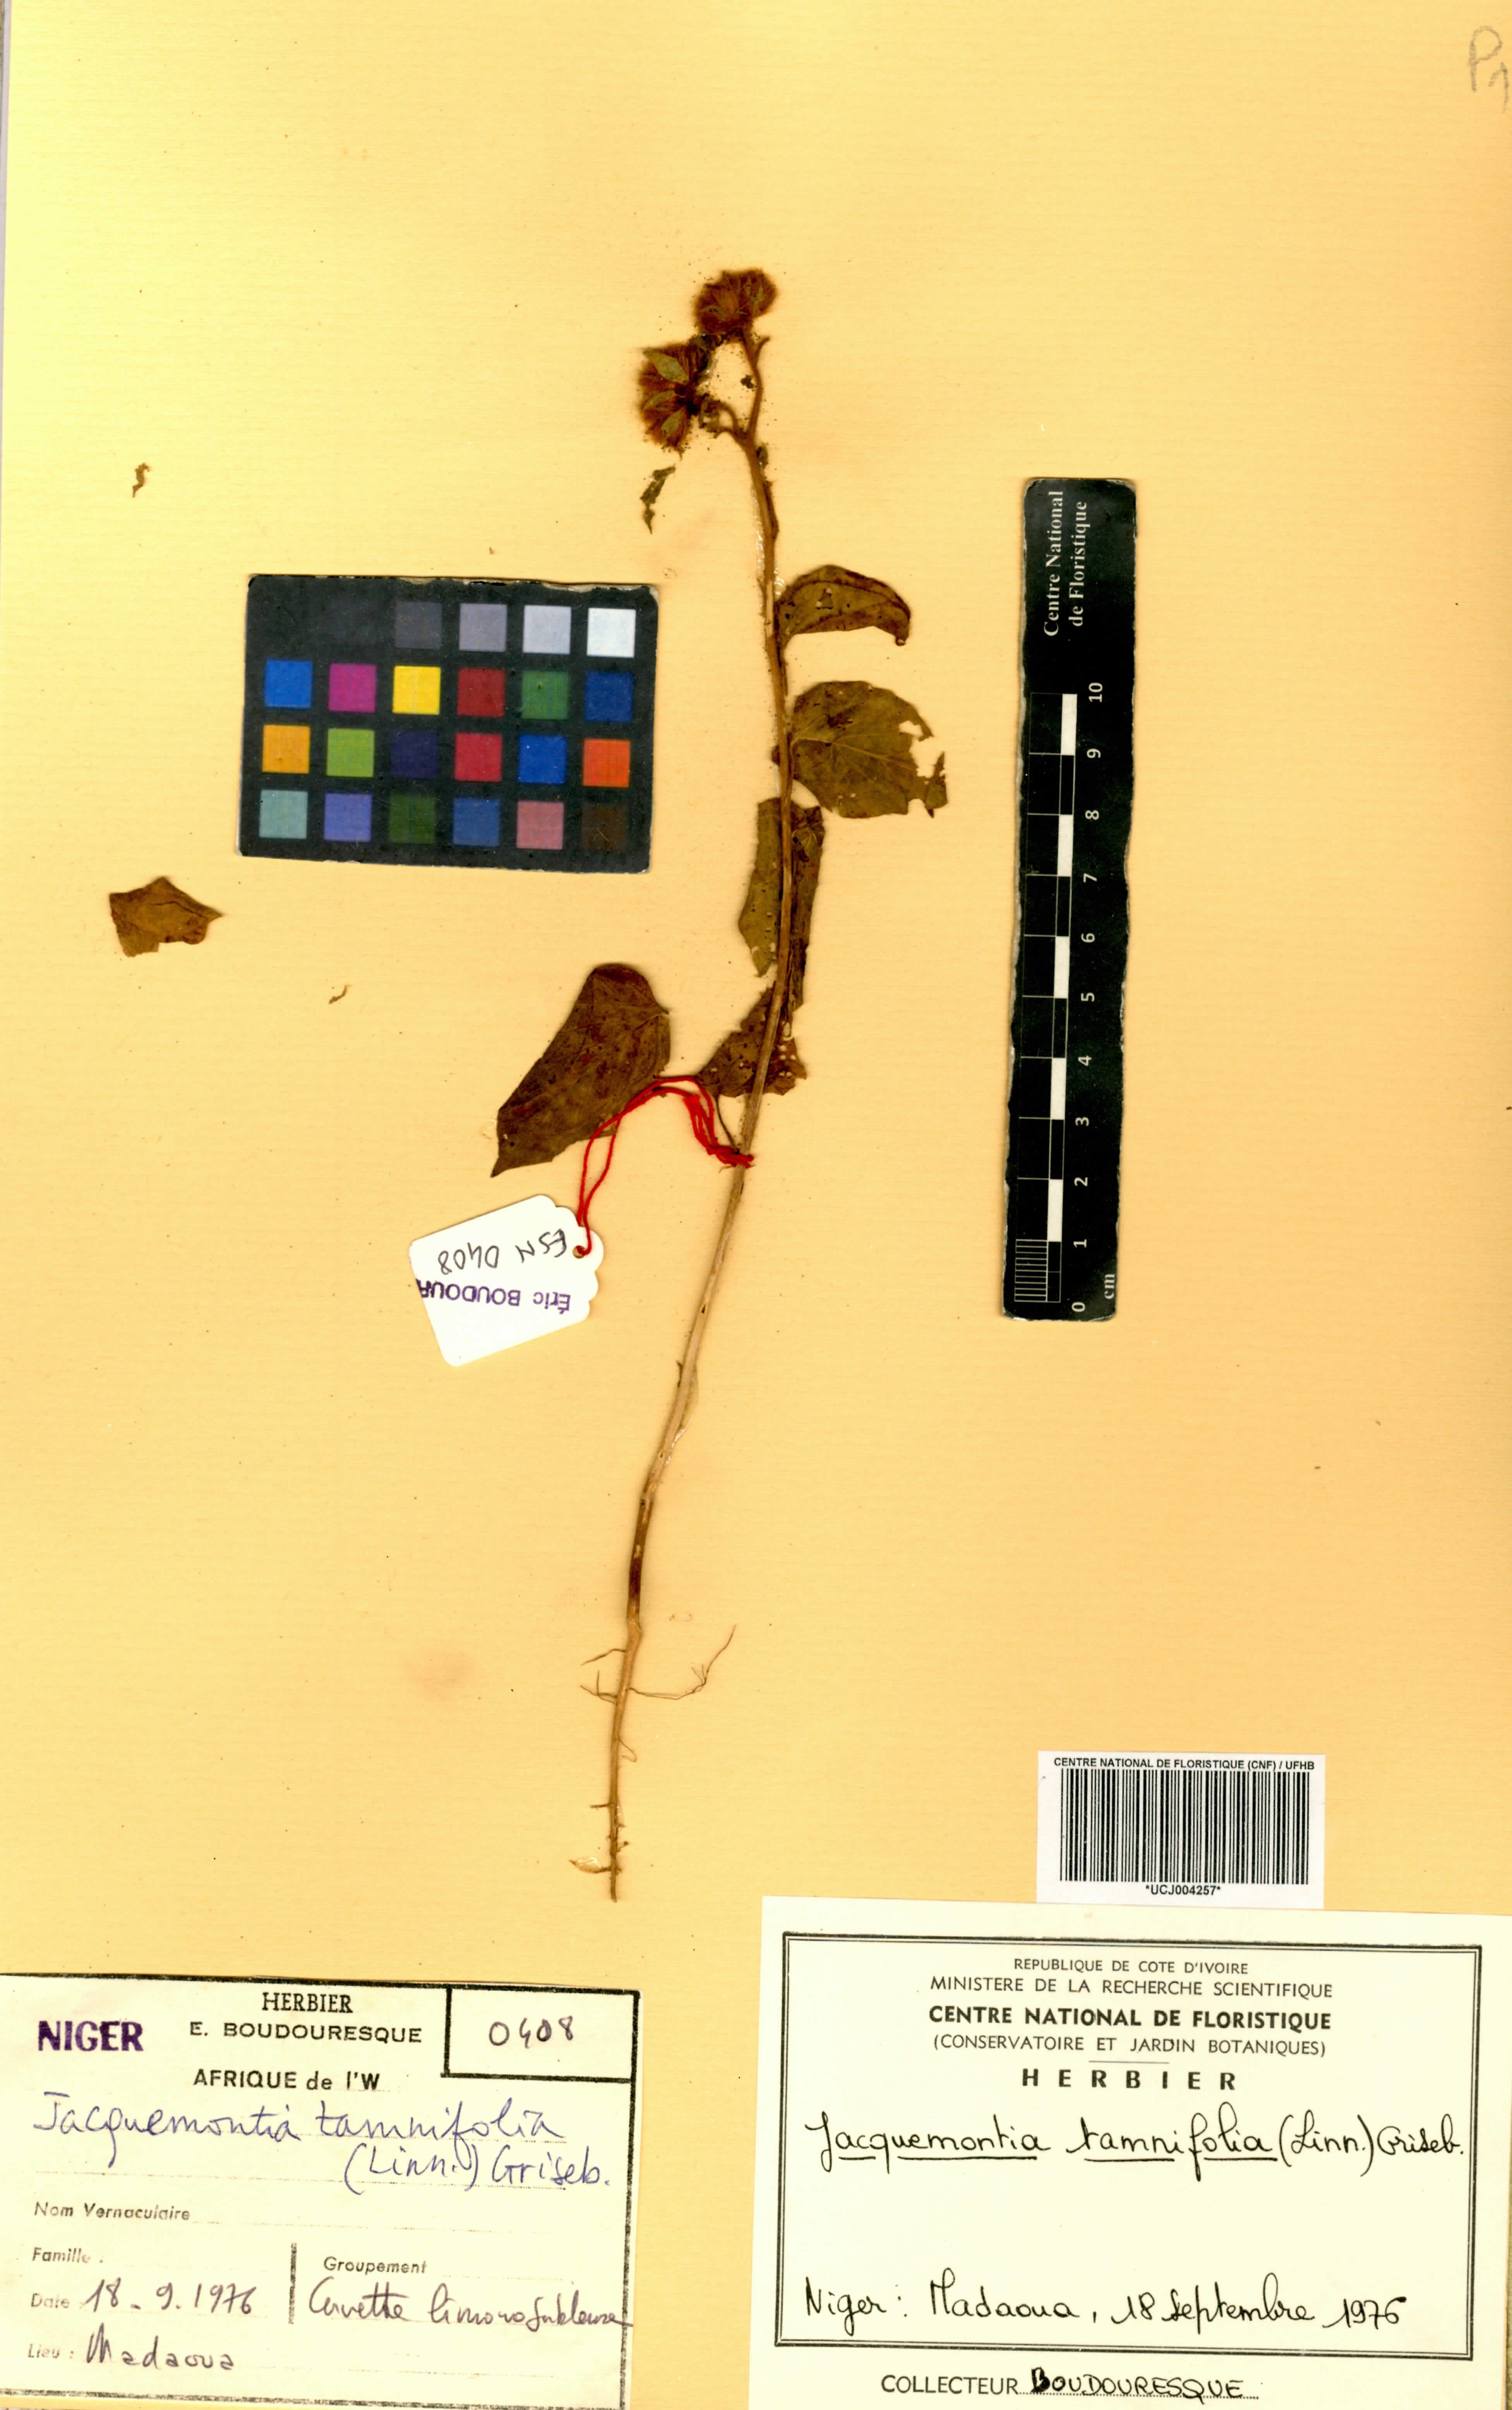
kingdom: Plantae
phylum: Tracheophyta
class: Magnoliopsida
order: Solanales
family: Convolvulaceae
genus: Jacquemontia
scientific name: Jacquemontia tamnifolia
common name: Hairy clustervine
